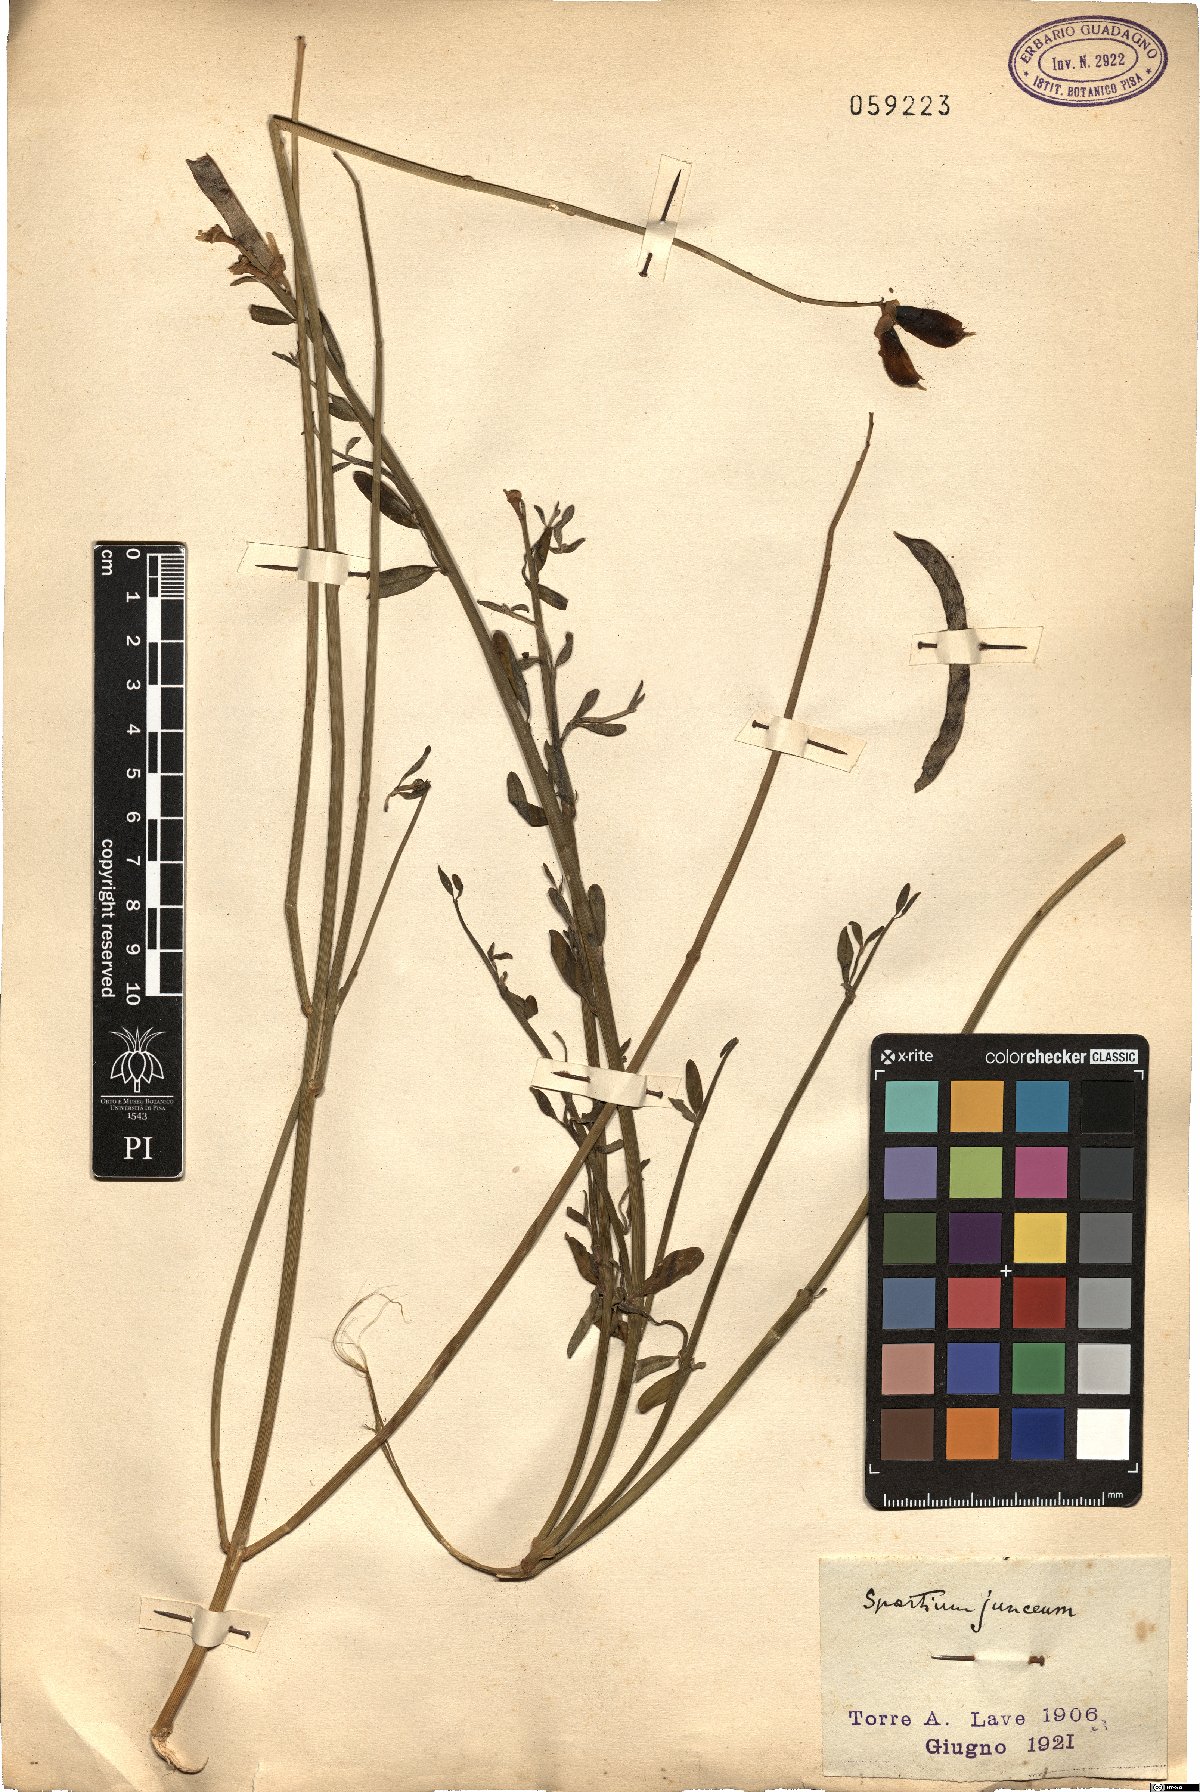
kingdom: Plantae
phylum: Tracheophyta
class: Magnoliopsida
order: Fabales
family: Fabaceae
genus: Spartium
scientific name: Spartium junceum
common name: Spanish broom
